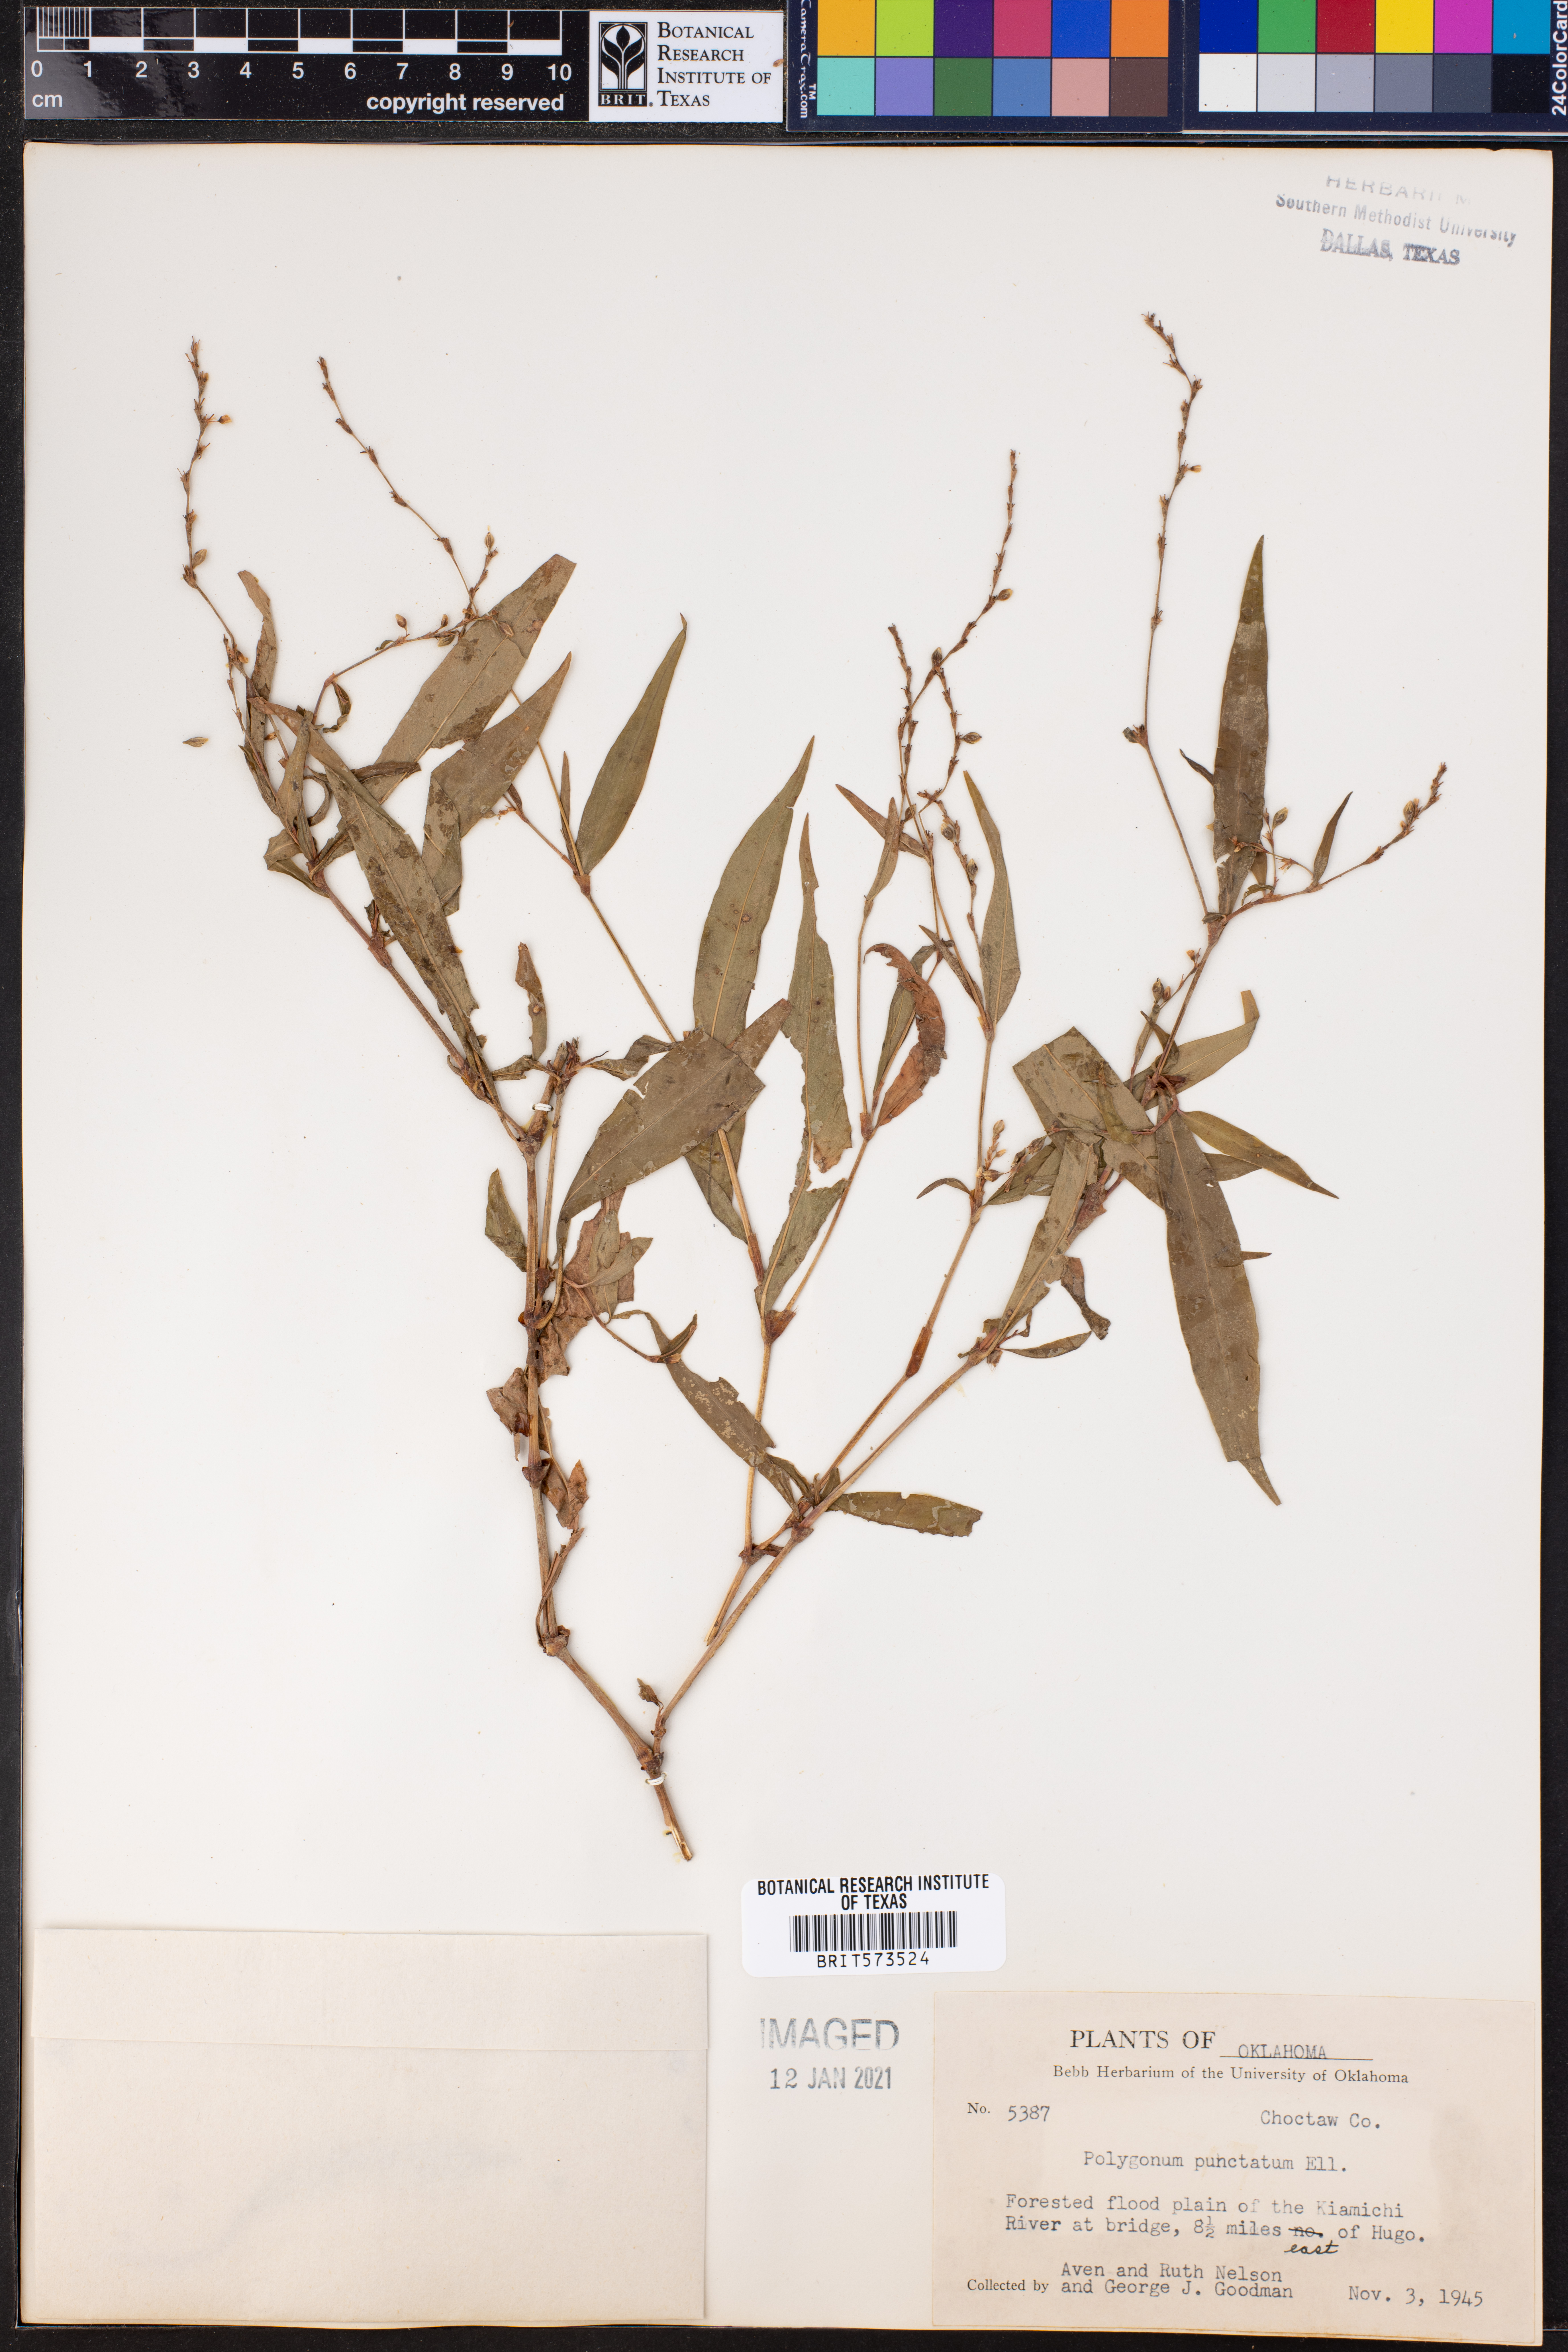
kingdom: Plantae
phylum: Tracheophyta
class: Magnoliopsida
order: Caryophyllales
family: Polygonaceae
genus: Persicaria
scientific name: Persicaria punctata
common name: Dotted smartweed
